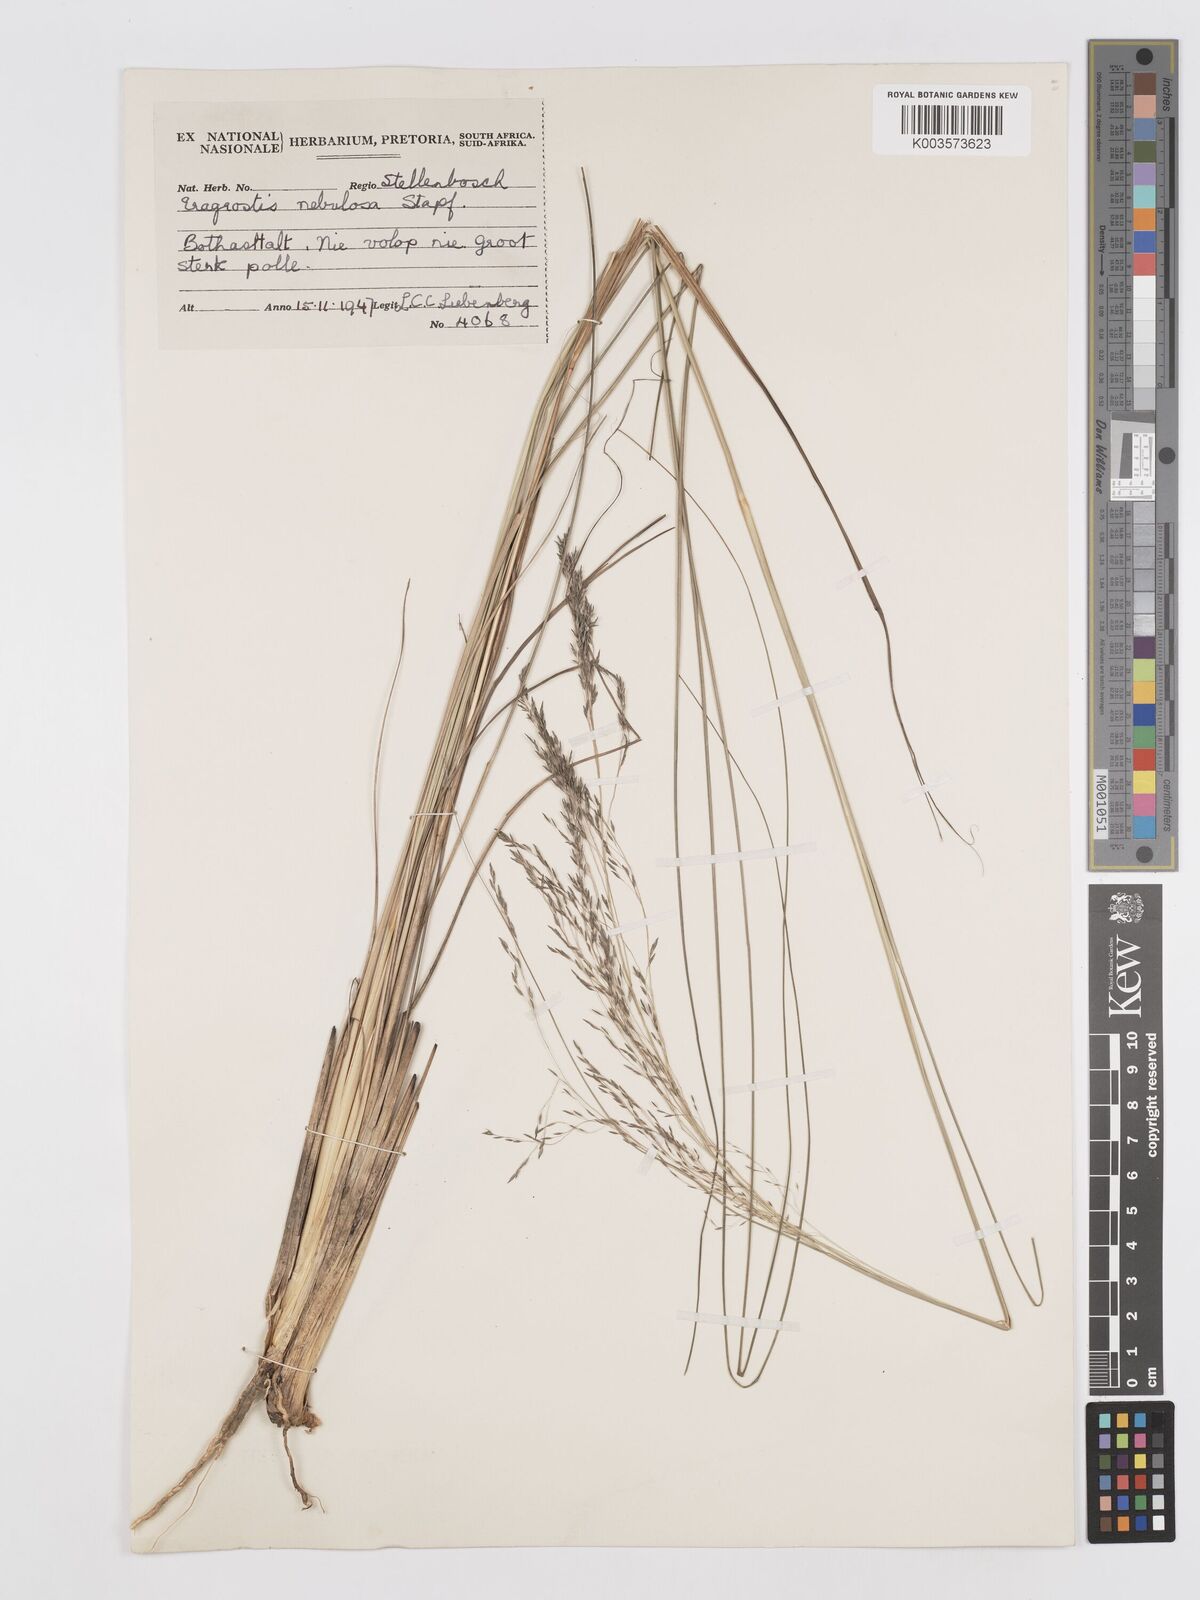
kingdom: Plantae
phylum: Tracheophyta
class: Liliopsida
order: Poales
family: Poaceae
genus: Eragrostis
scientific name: Eragrostis planiculmis
